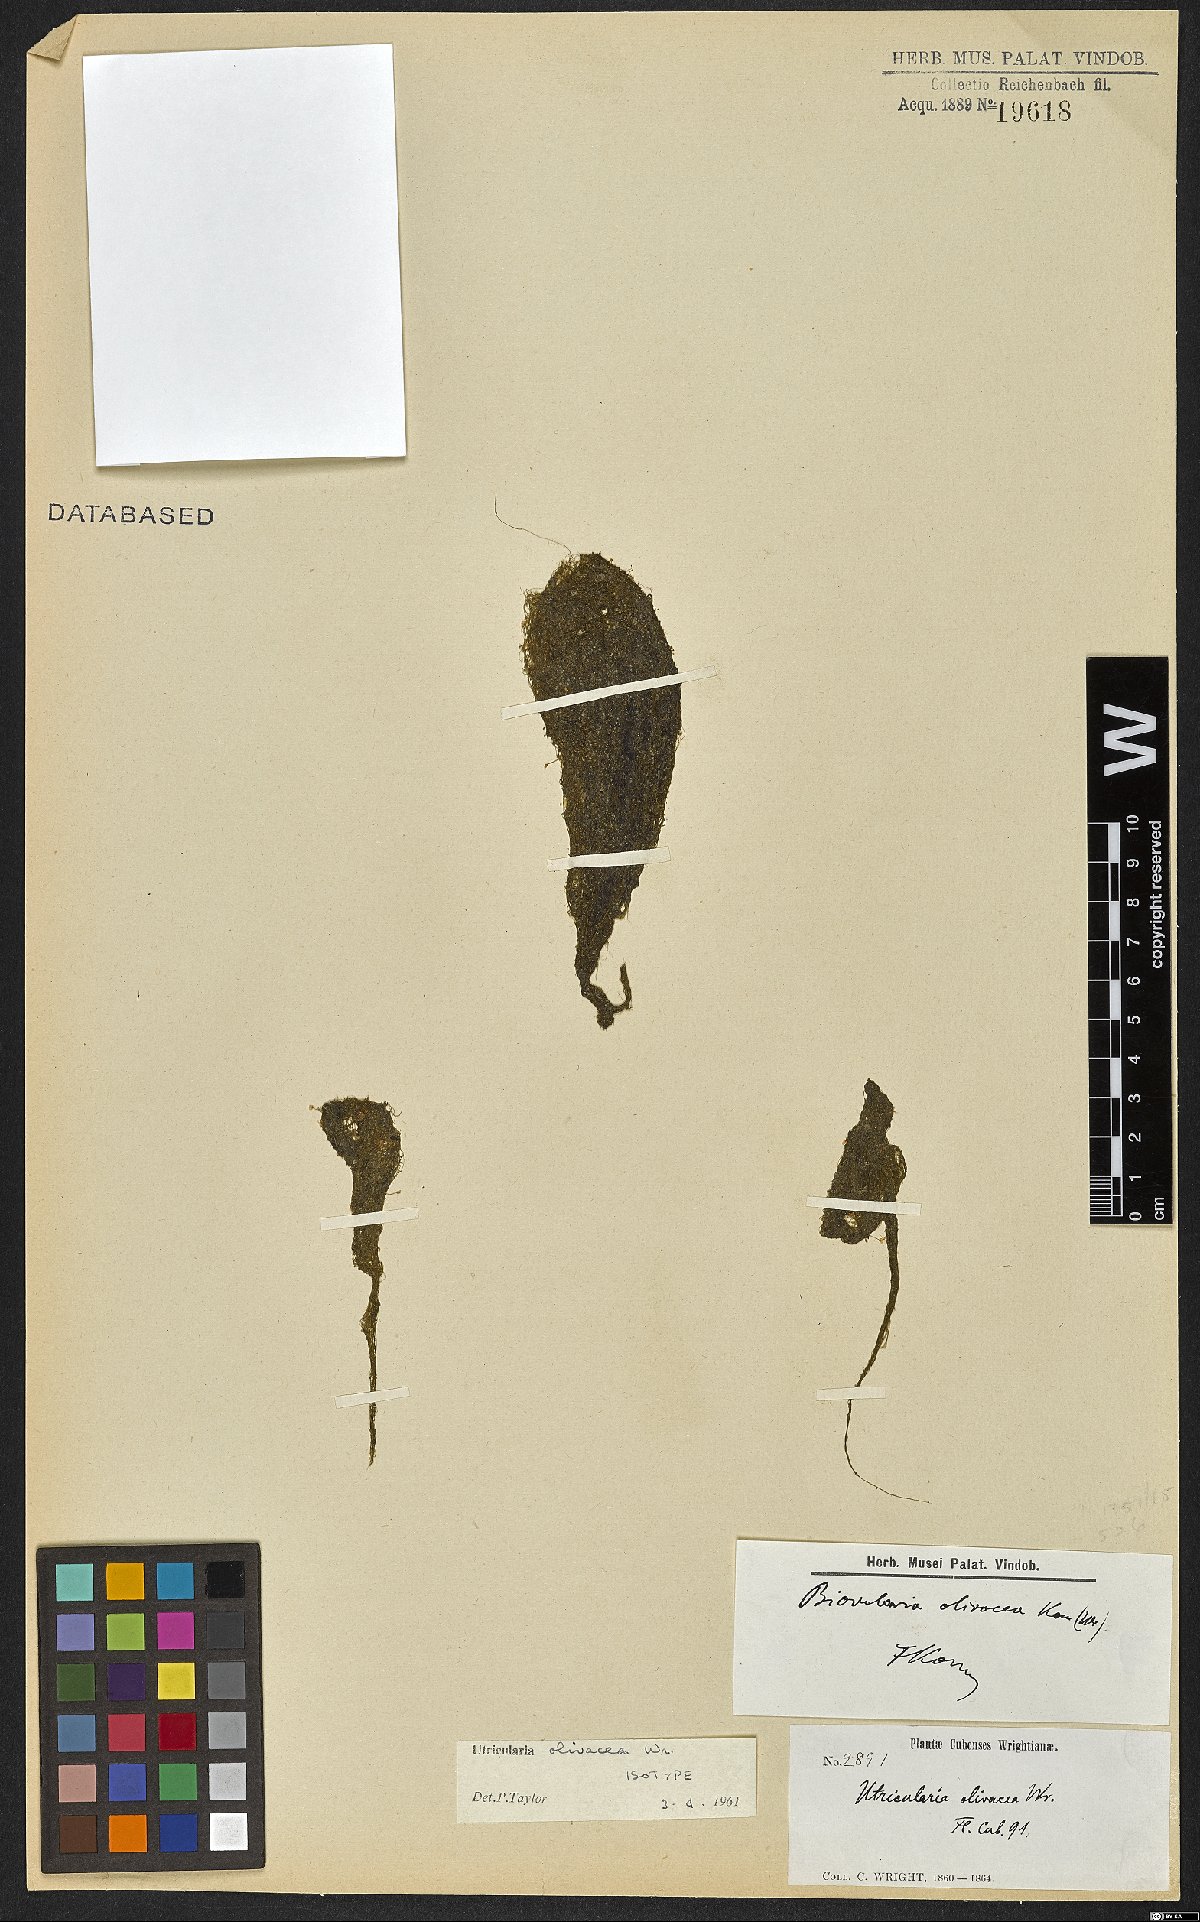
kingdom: Plantae
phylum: Tracheophyta
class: Magnoliopsida
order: Lamiales
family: Lentibulariaceae
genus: Utricularia
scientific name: Utricularia olivacea
